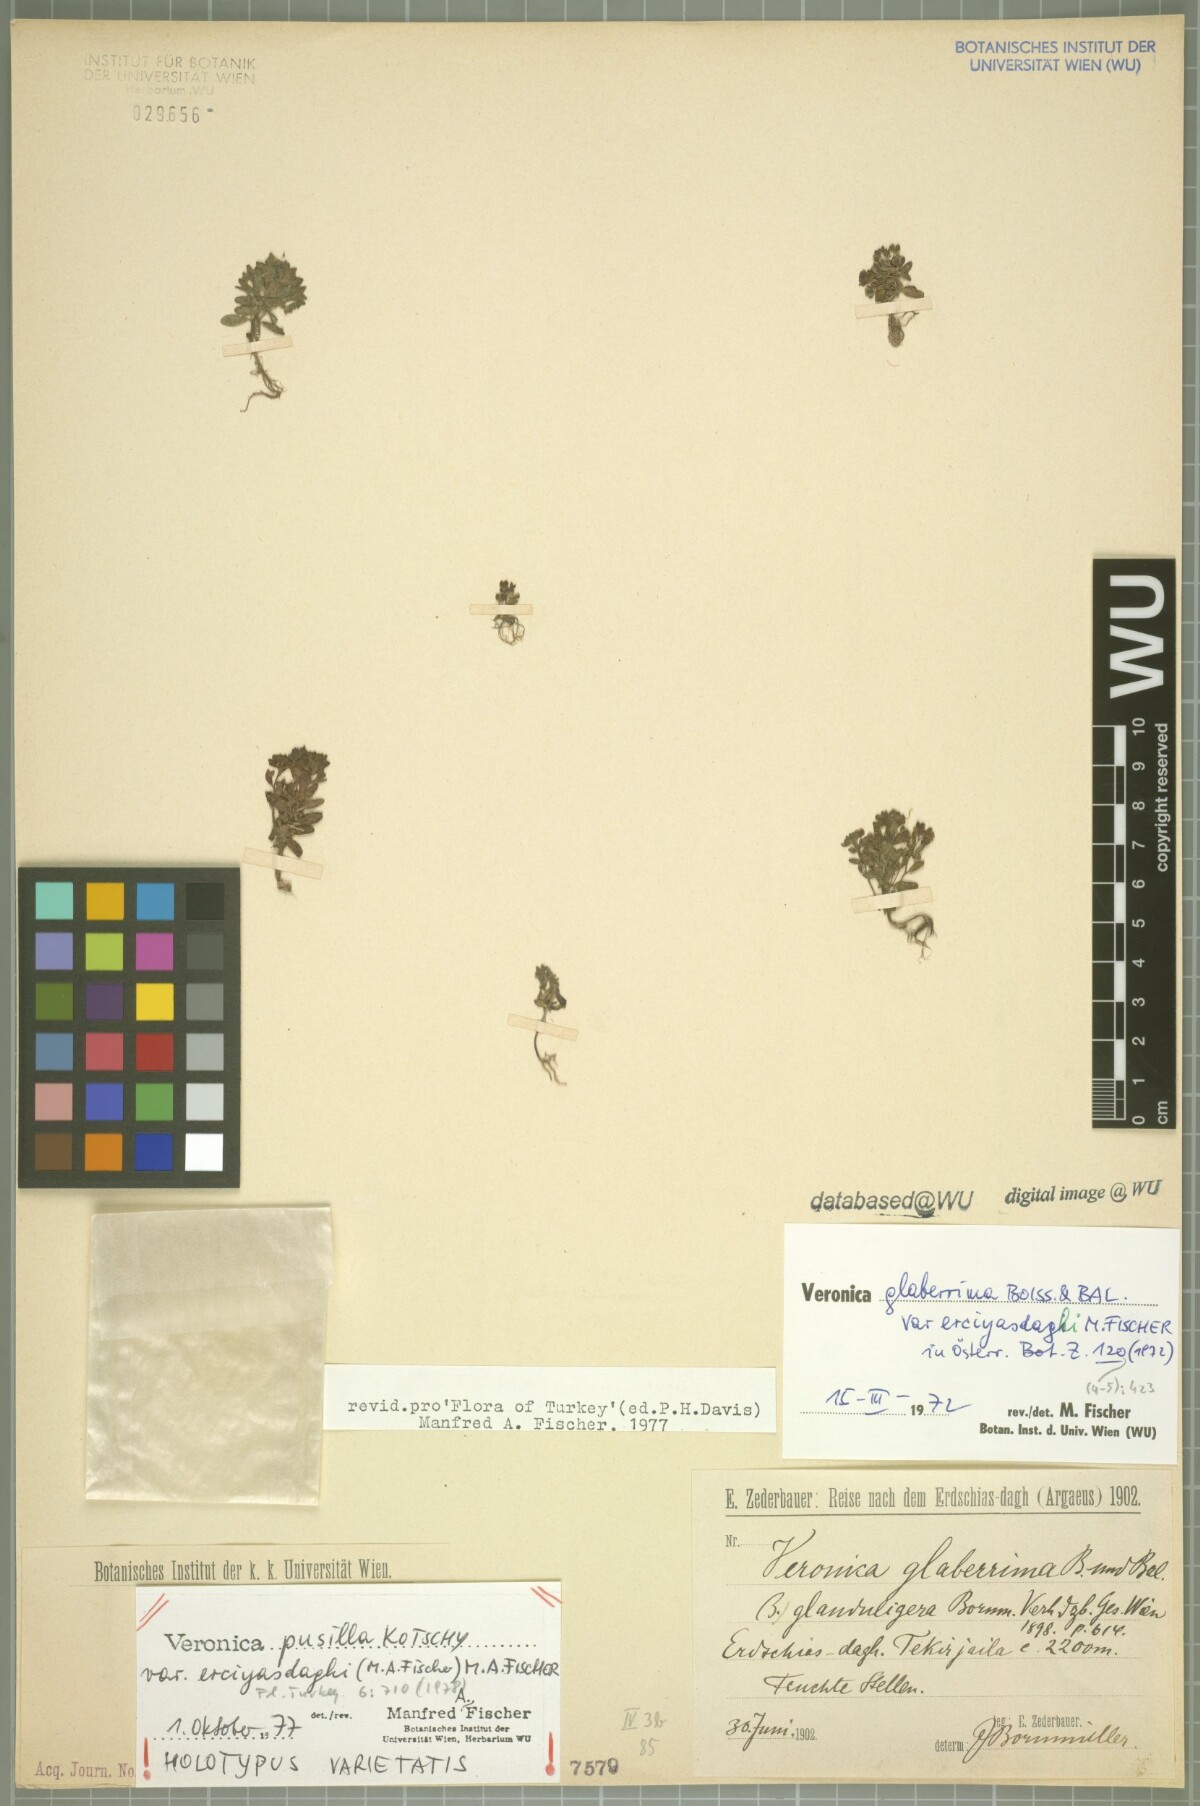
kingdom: Plantae
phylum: Tracheophyta
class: Magnoliopsida
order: Lamiales
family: Plantaginaceae
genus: Veronica
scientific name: Veronica pusilla
